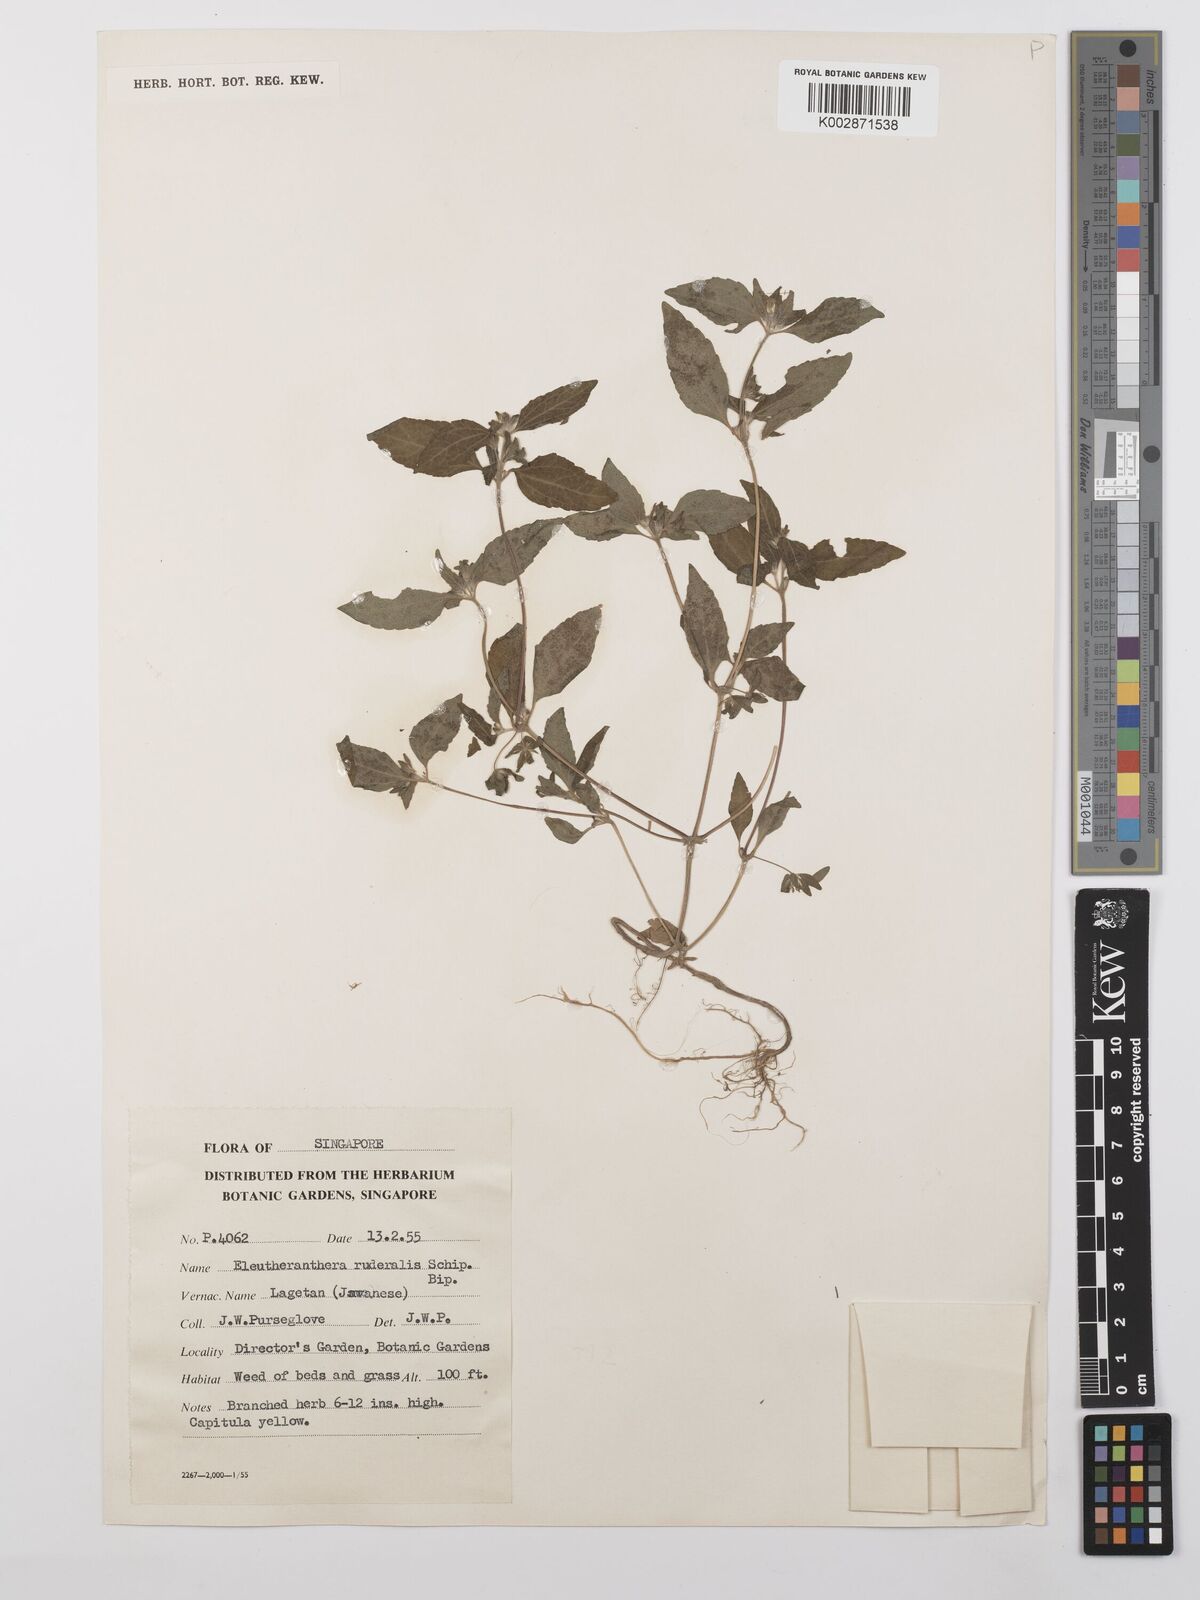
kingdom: Plantae
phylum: Tracheophyta
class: Magnoliopsida
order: Asterales
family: Asteraceae
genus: Eleutheranthera
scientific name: Eleutheranthera ruderalis
